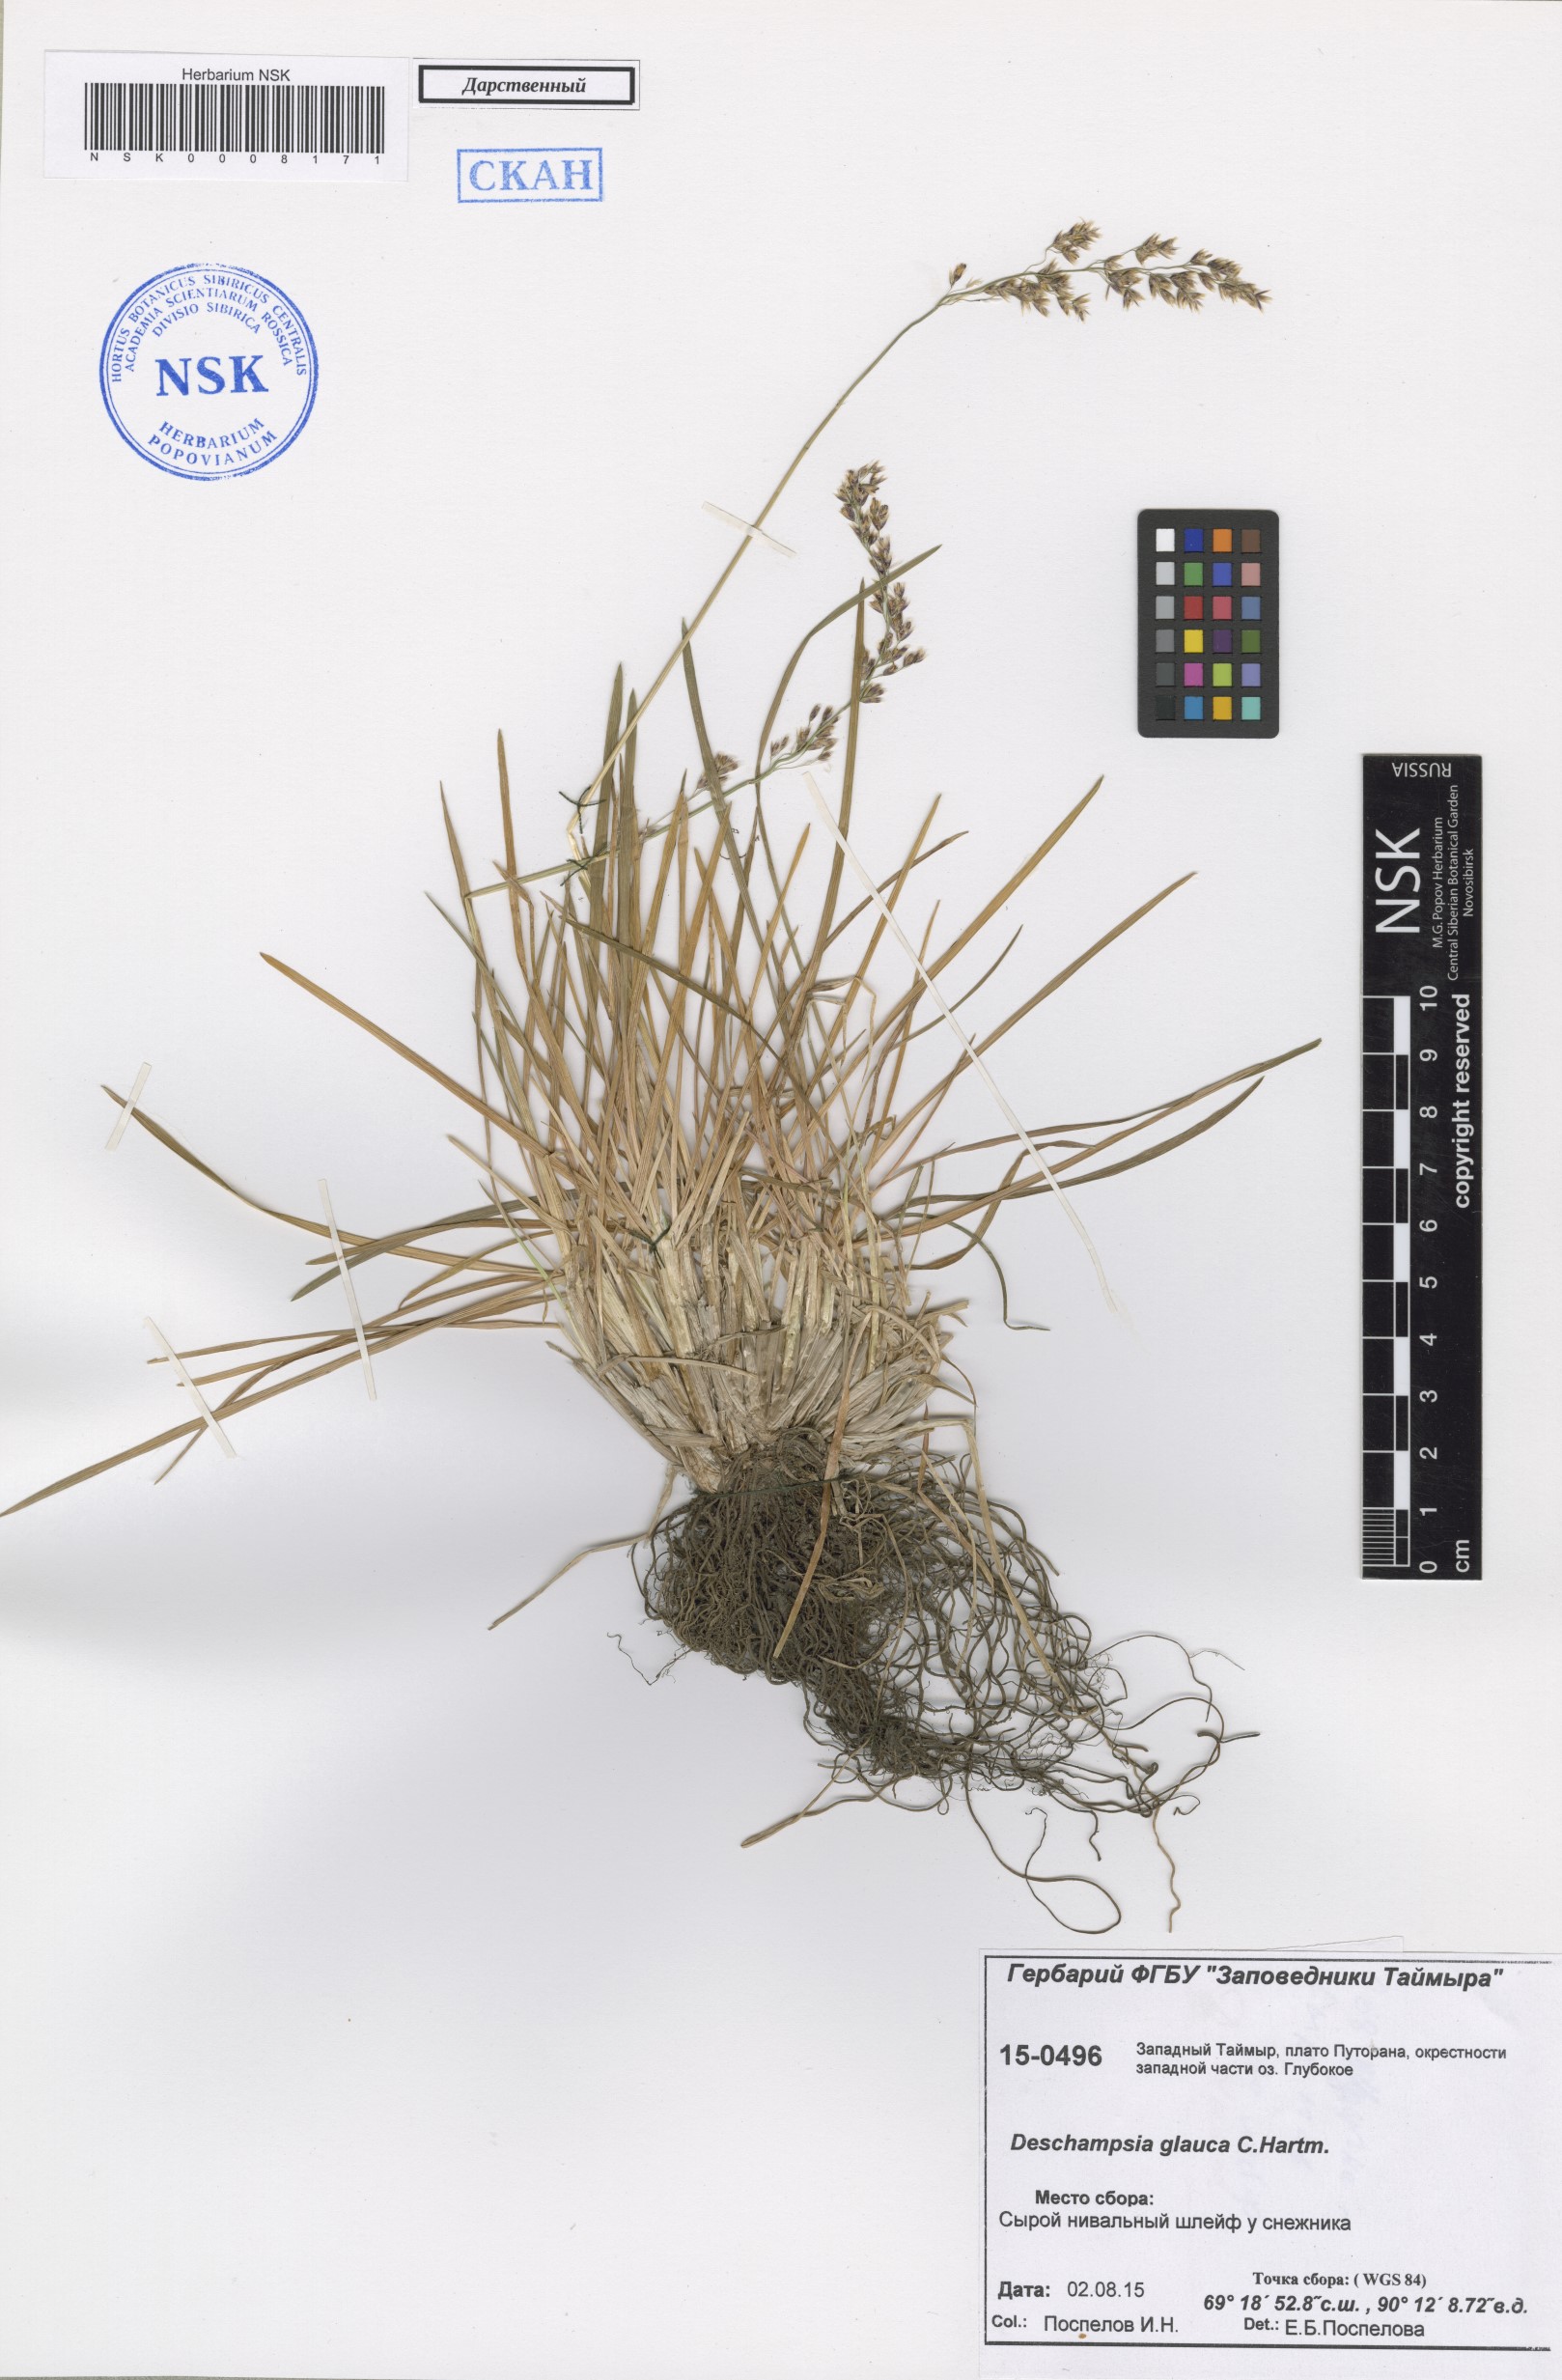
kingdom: Plantae
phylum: Tracheophyta
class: Liliopsida
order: Poales
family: Poaceae
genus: Deschampsia
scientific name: Deschampsia cespitosa
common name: Tufted hair-grass
